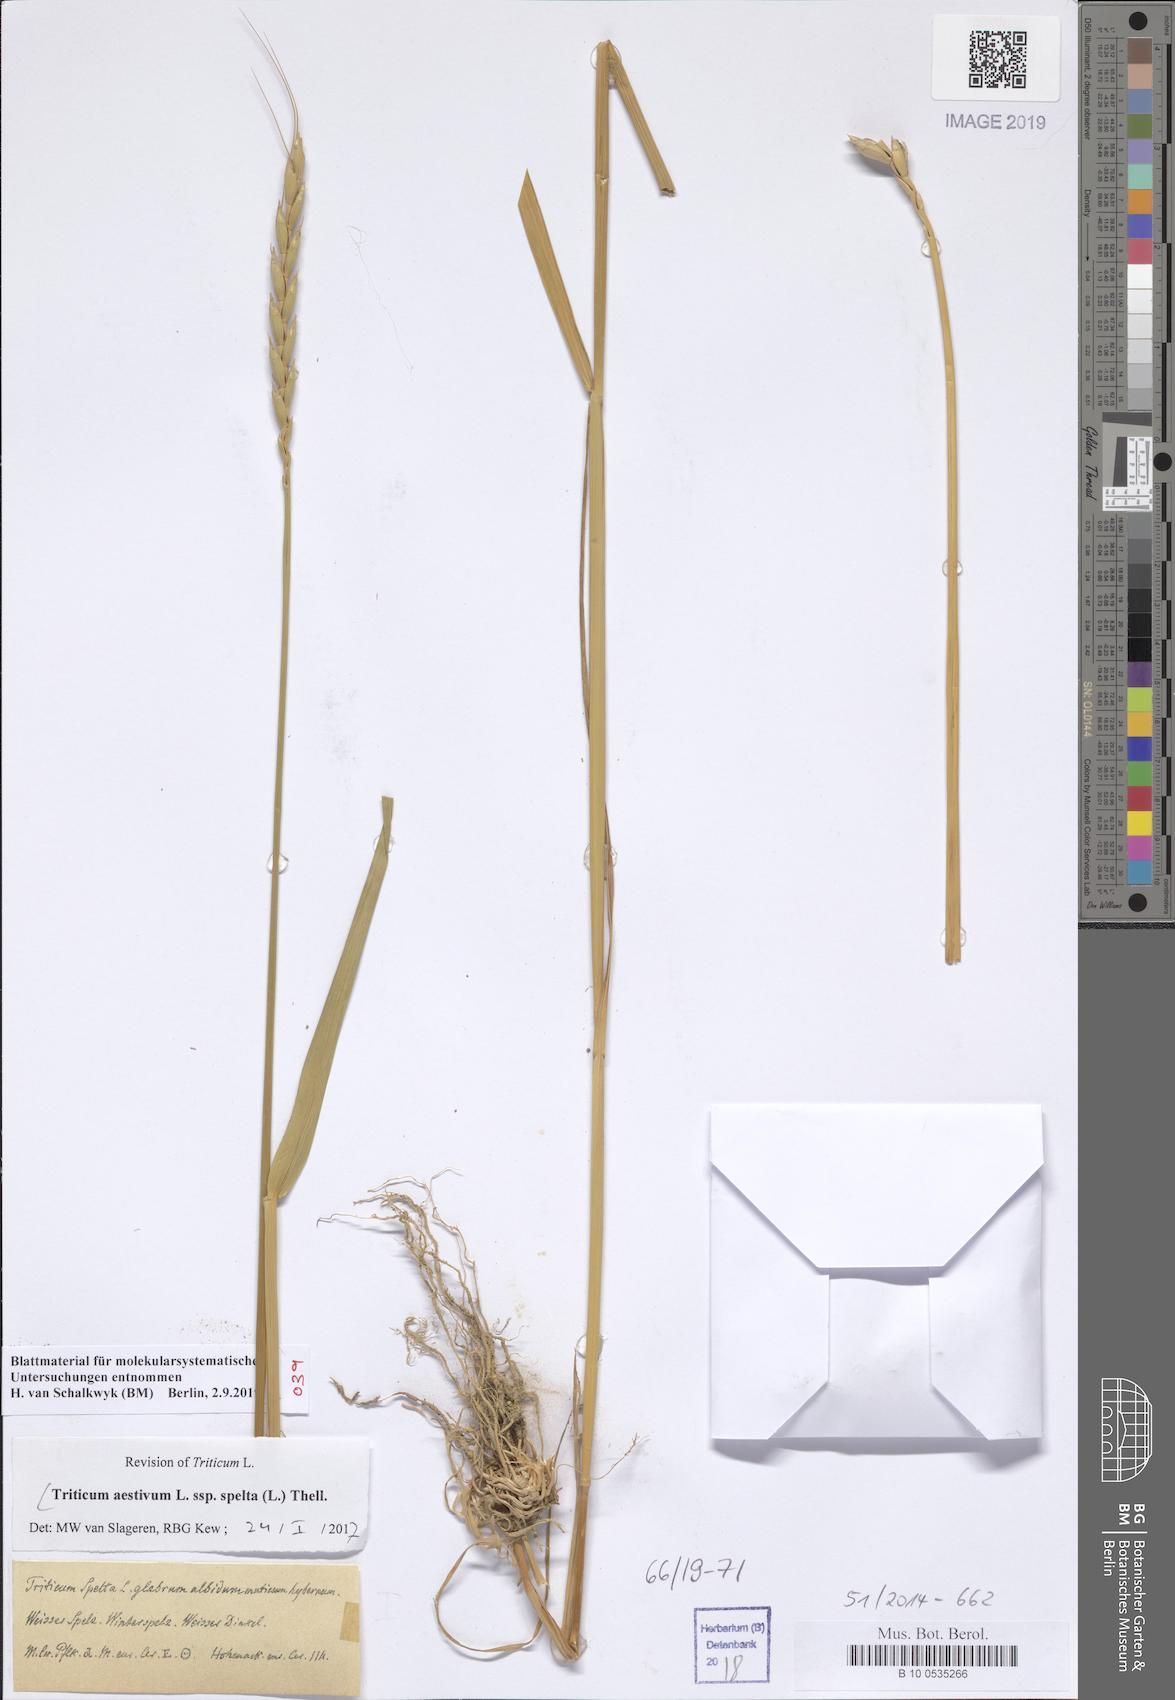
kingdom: Plantae
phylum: Tracheophyta
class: Liliopsida
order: Poales
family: Poaceae
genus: Triticum
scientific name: Triticum aestivum
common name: Common wheat
